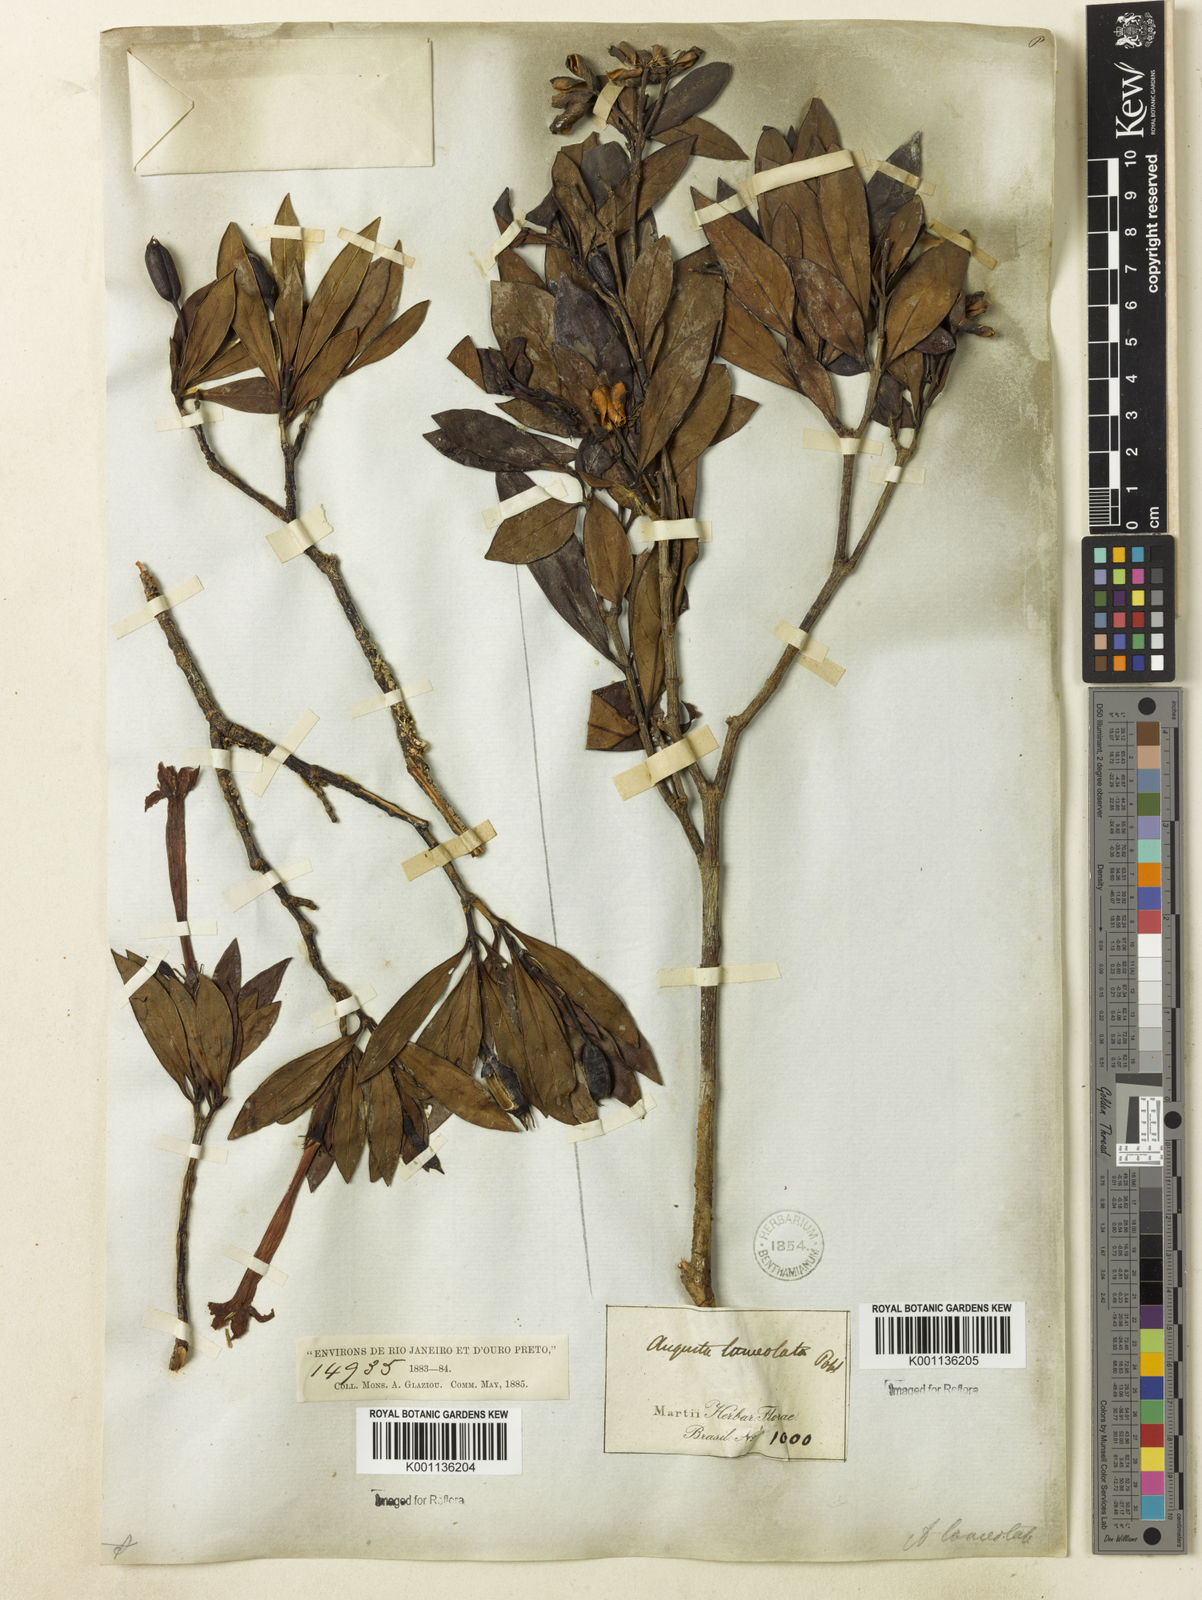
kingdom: Plantae
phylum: Tracheophyta
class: Magnoliopsida
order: Gentianales
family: Rubiaceae
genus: Augusta
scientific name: Augusta longifolia
